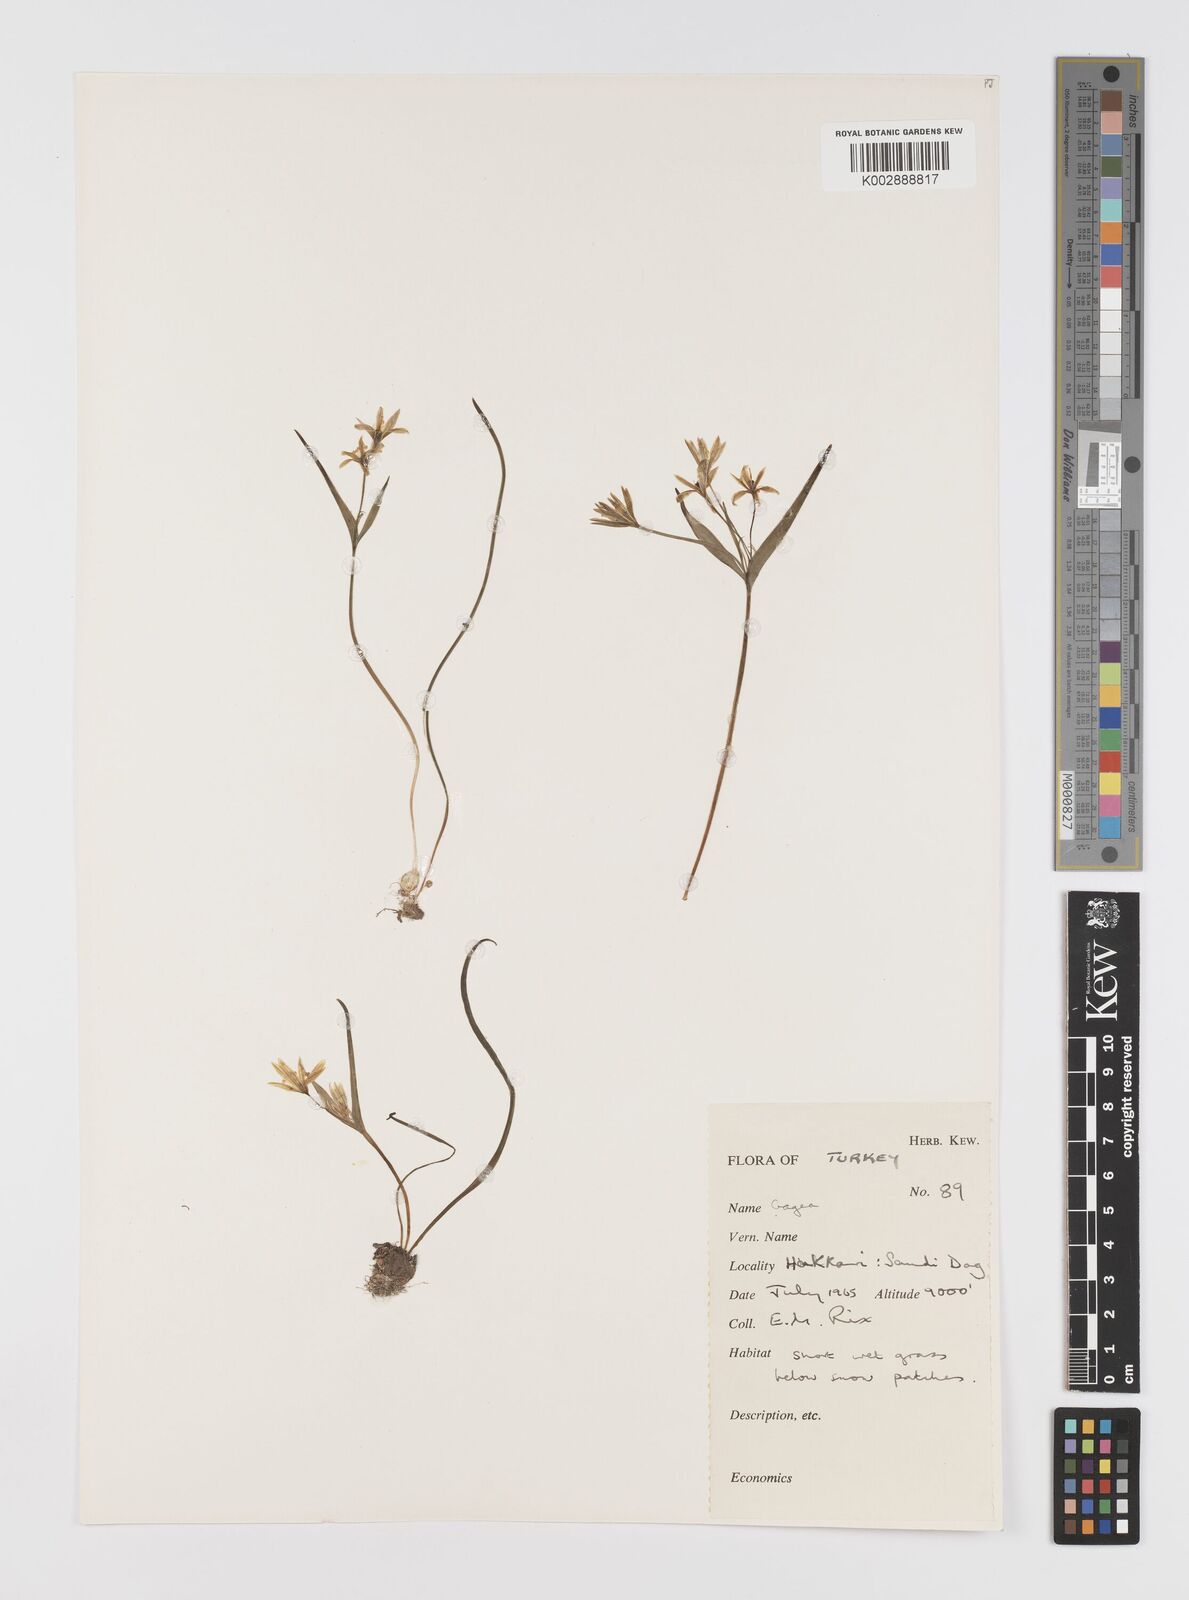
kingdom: Plantae
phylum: Tracheophyta
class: Liliopsida
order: Liliales
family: Liliaceae
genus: Gagea
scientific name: Gagea
